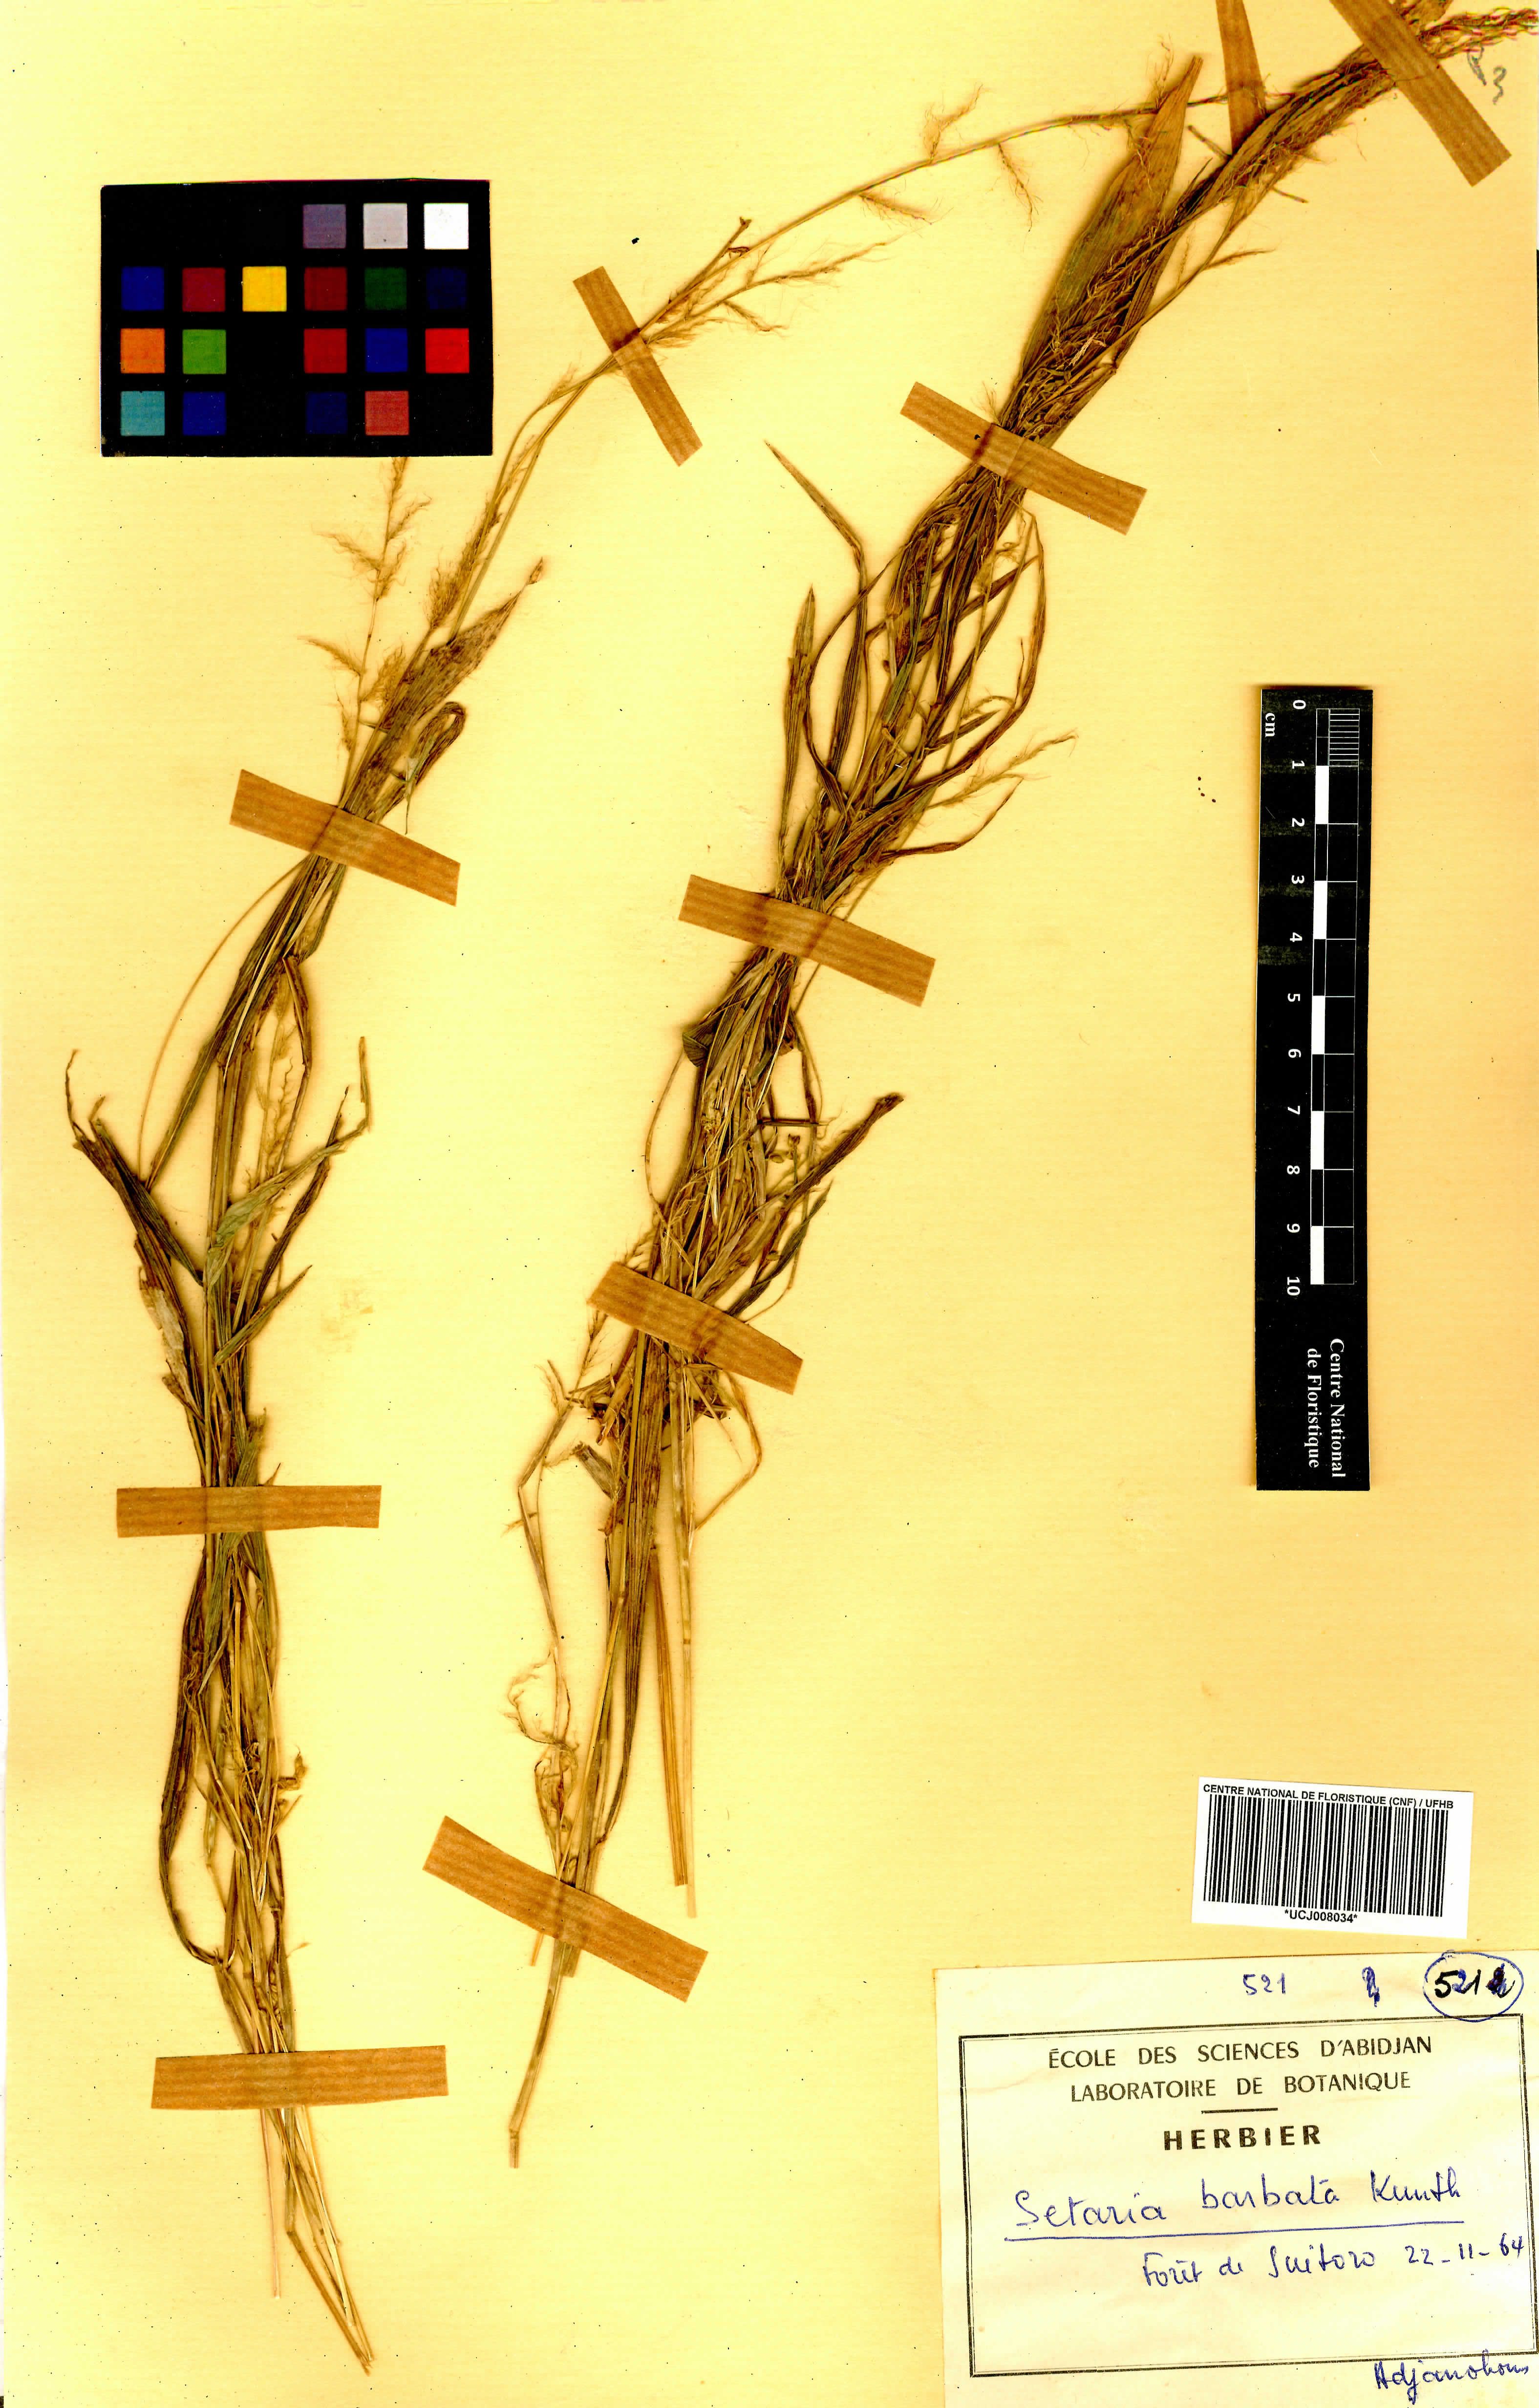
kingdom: Plantae
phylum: Tracheophyta
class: Liliopsida
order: Poales
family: Poaceae
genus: Setaria
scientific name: Setaria barbata
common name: East indian bristlegrass
